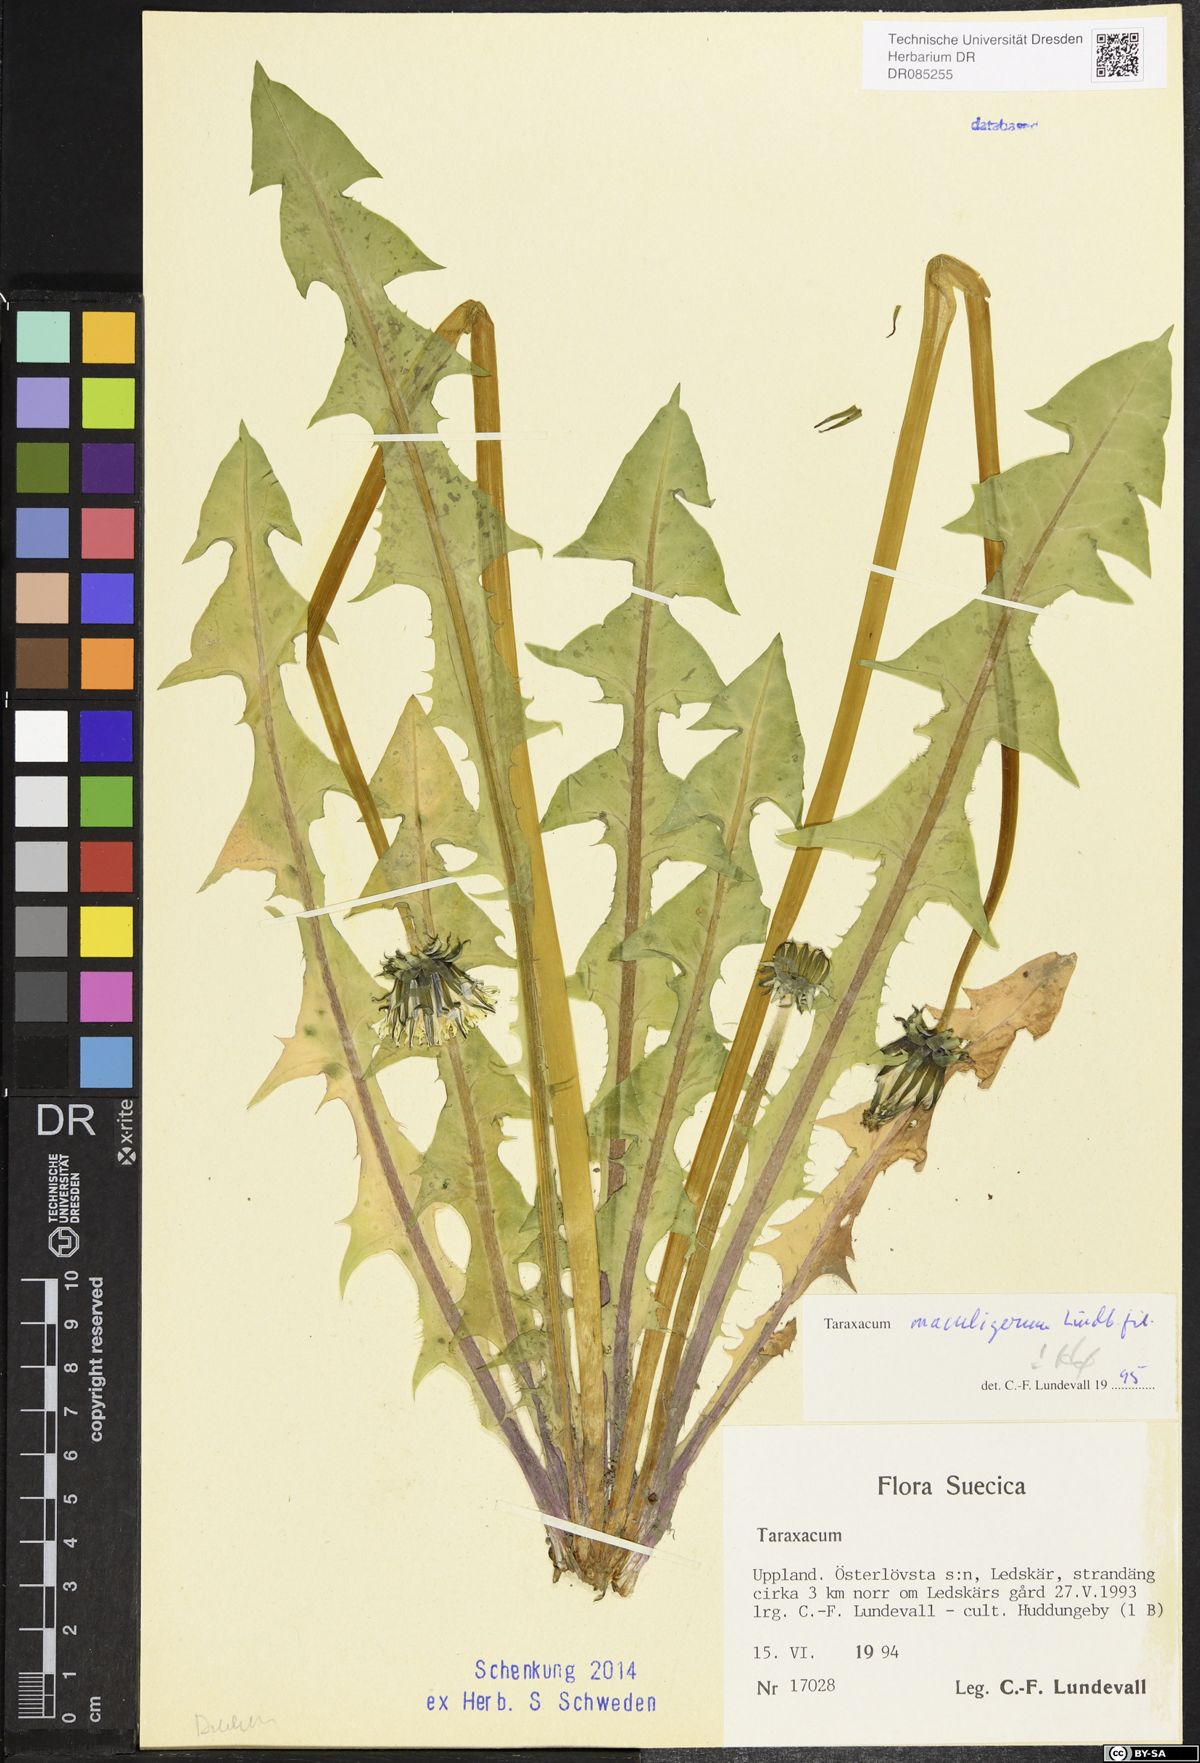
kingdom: Plantae
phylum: Tracheophyta
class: Magnoliopsida
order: Asterales
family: Asteraceae
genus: Taraxacum
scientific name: Taraxacum maculigerum
